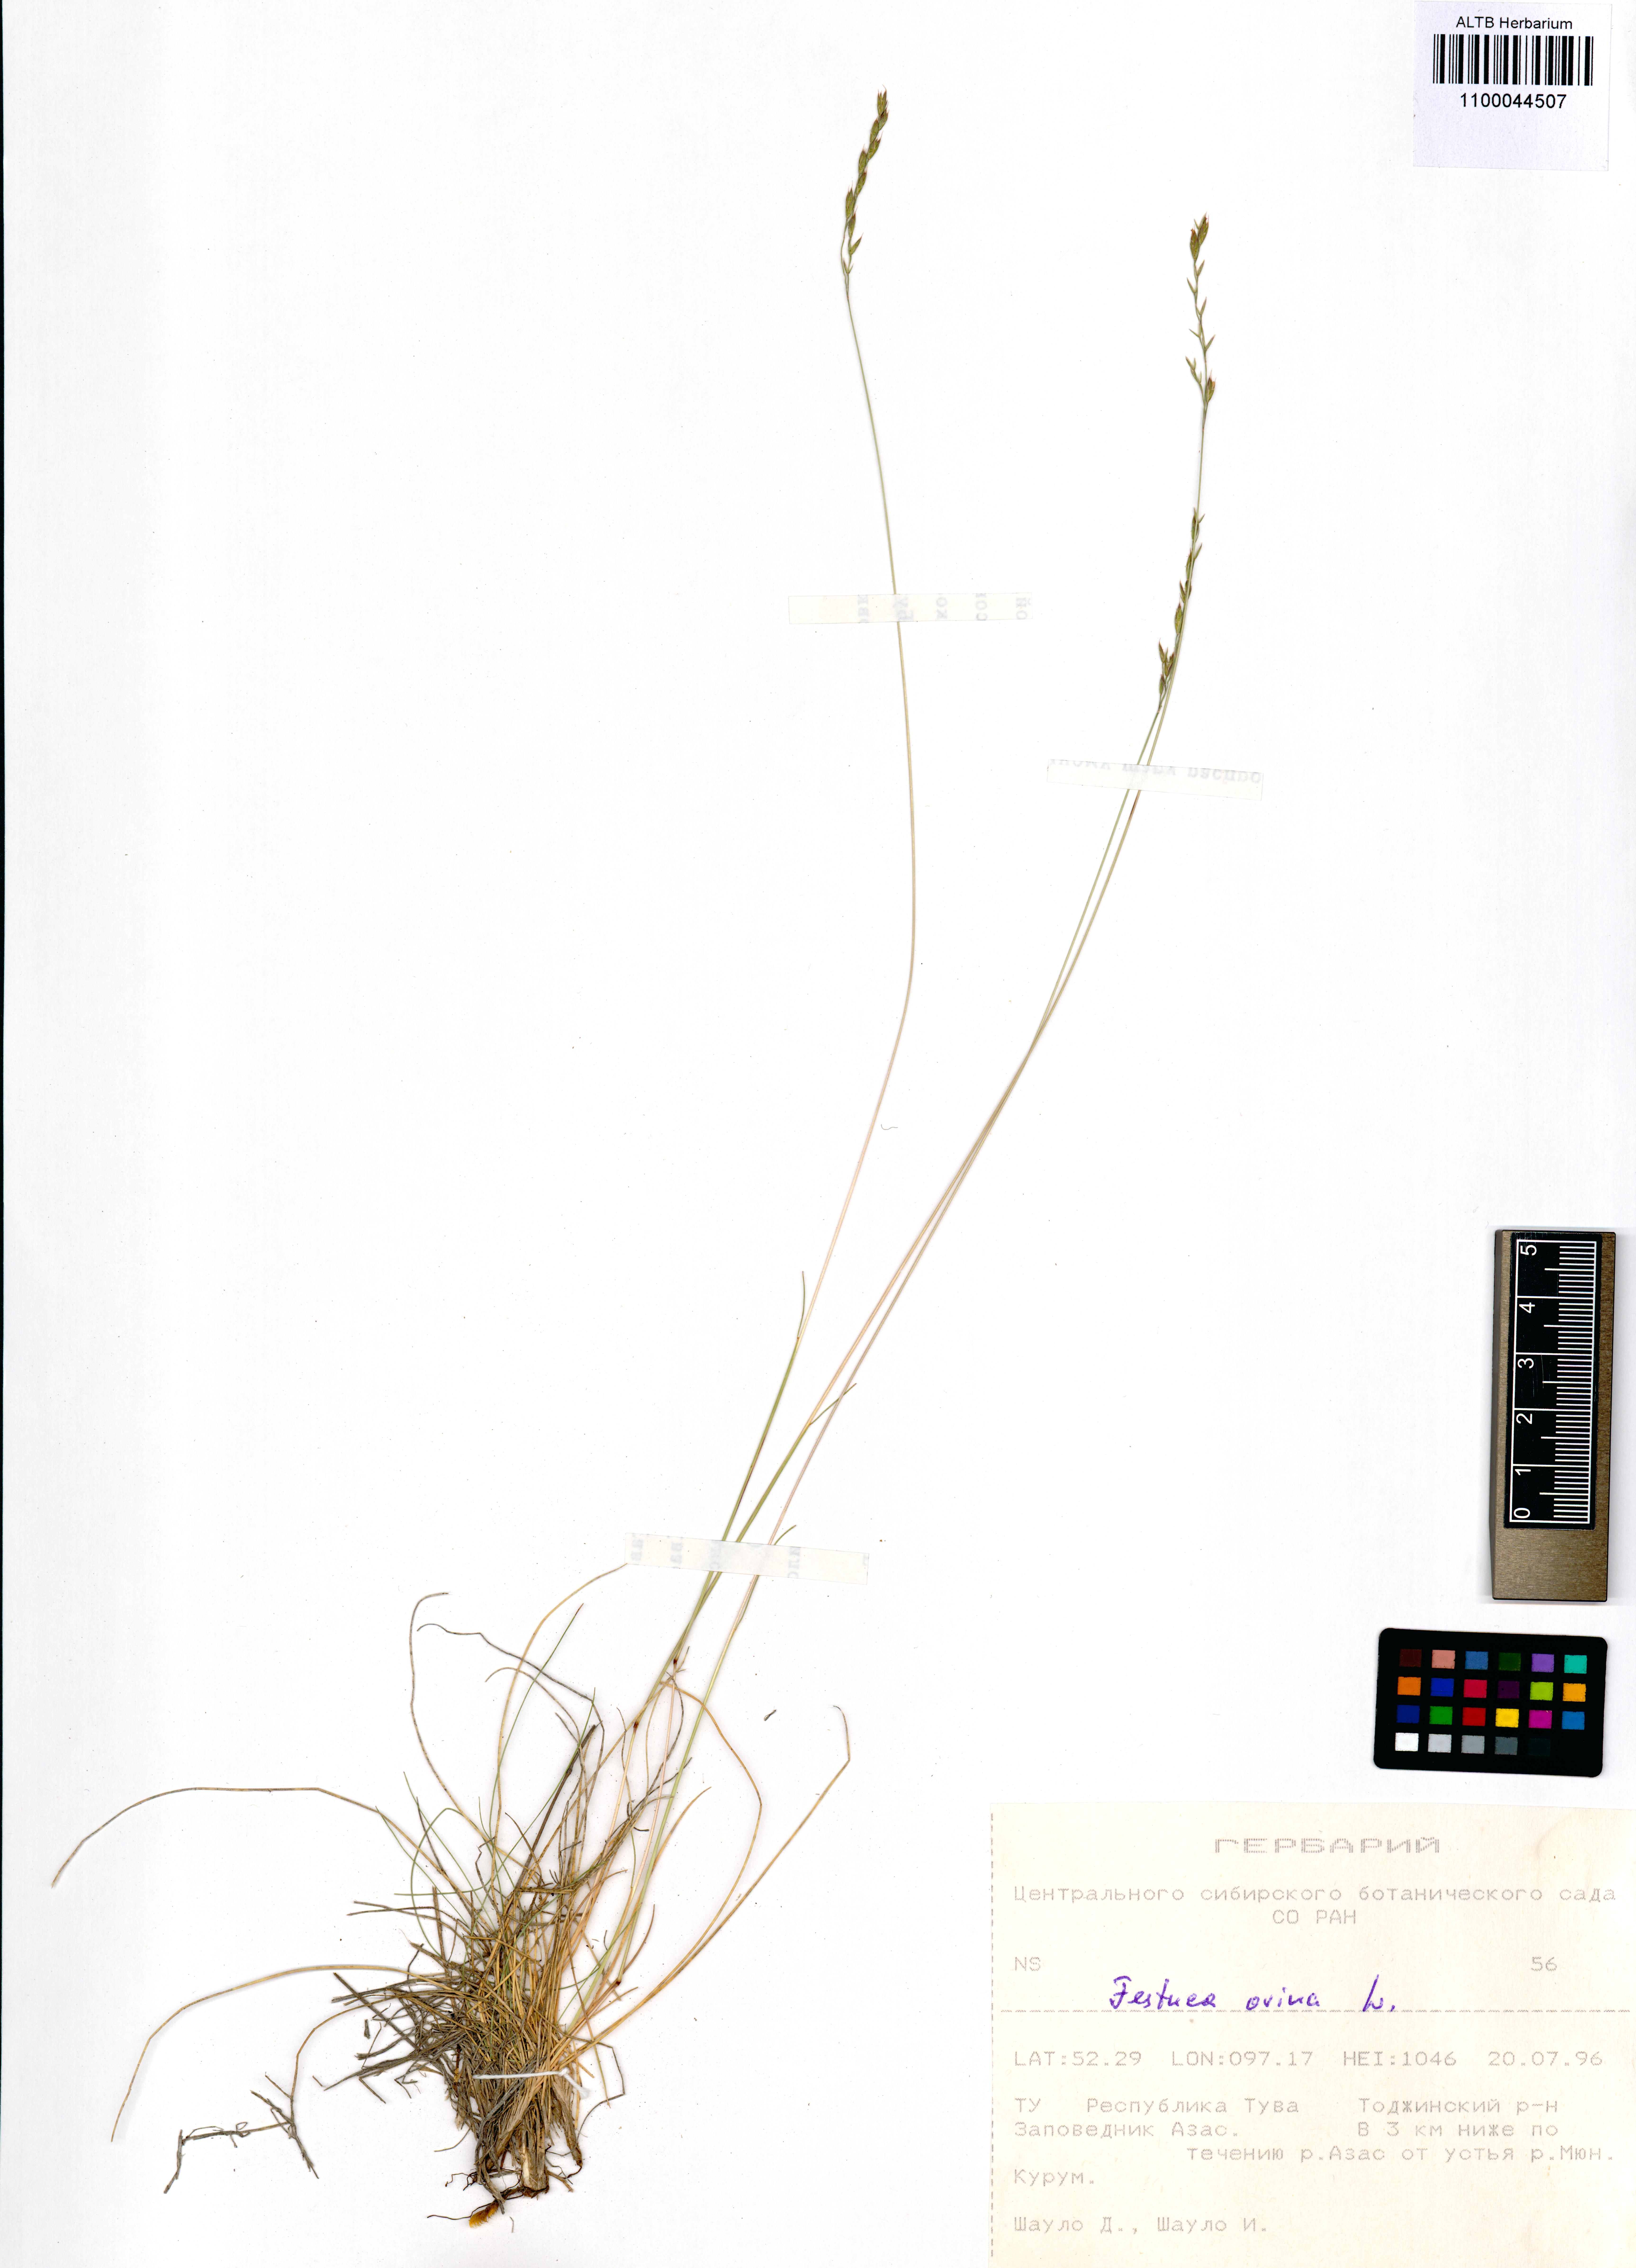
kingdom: Plantae
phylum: Tracheophyta
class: Liliopsida
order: Poales
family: Poaceae
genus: Festuca
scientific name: Festuca ovina
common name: Sheep fescue
